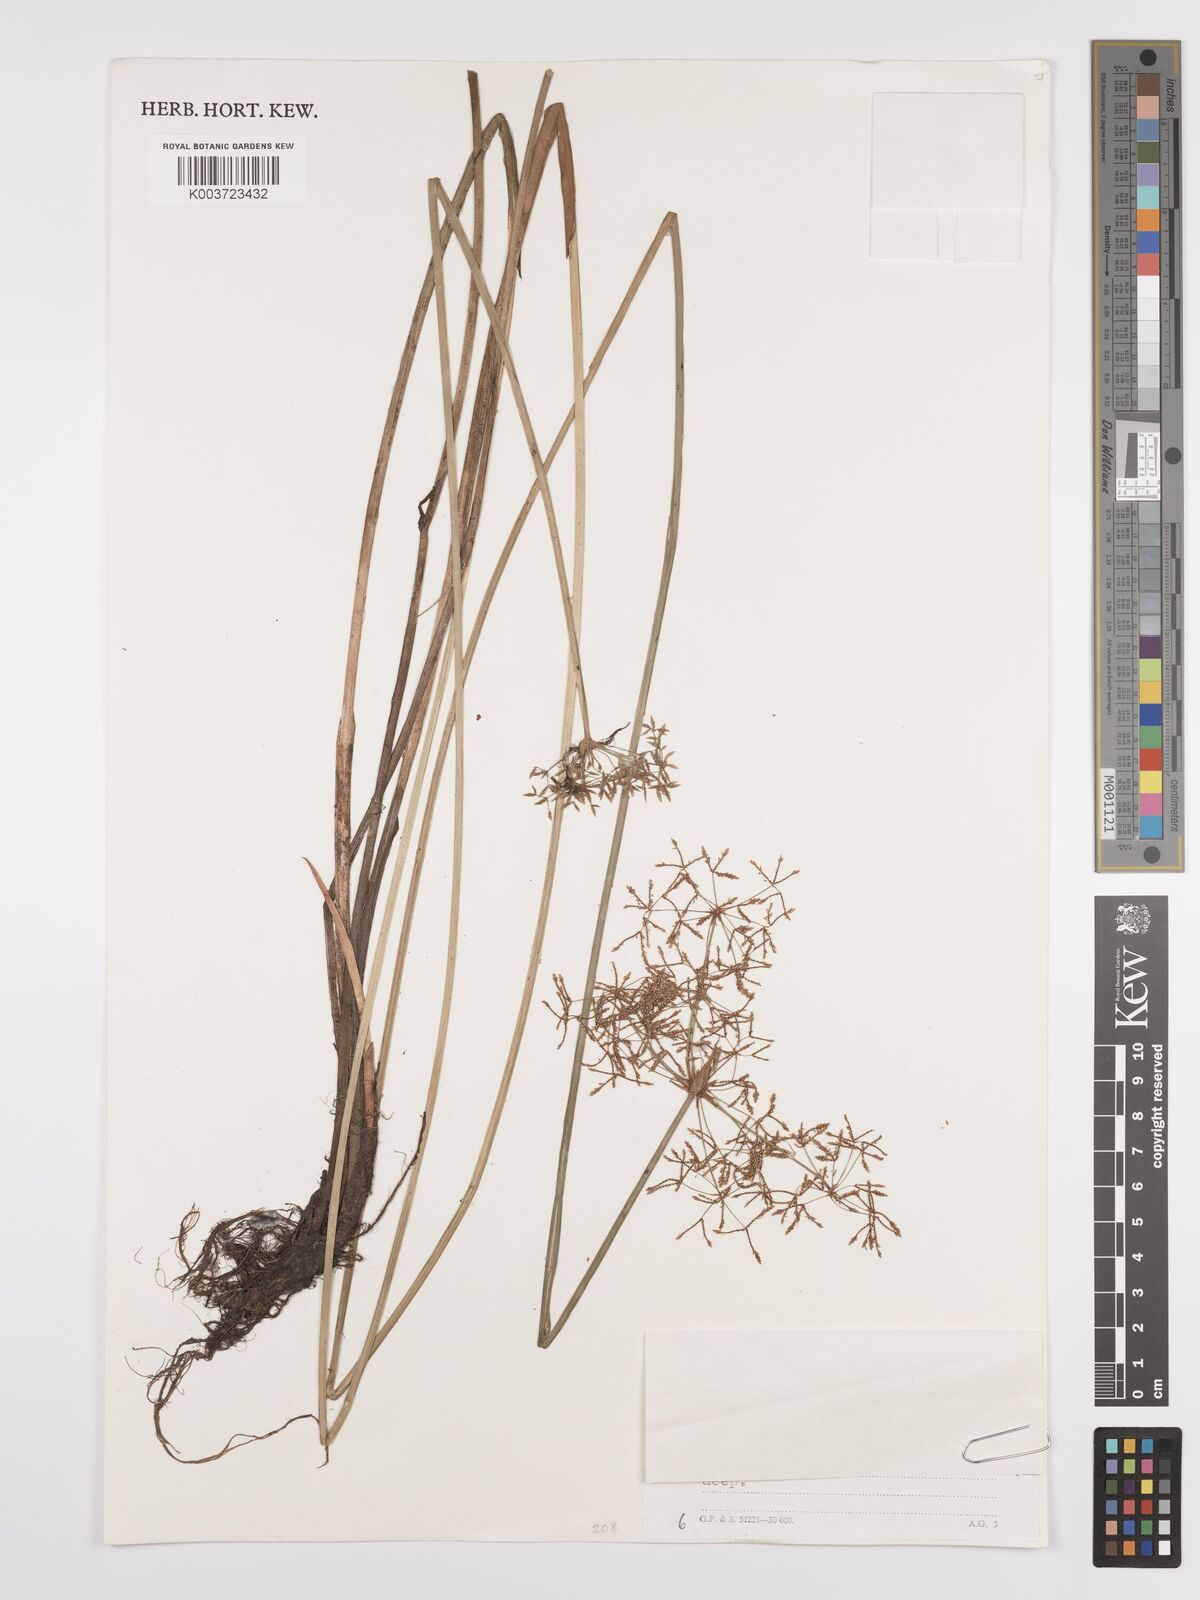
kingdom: Plantae
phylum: Tracheophyta
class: Liliopsida
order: Poales
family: Cyperaceae
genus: Cyperus
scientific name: Cyperus denudatus
